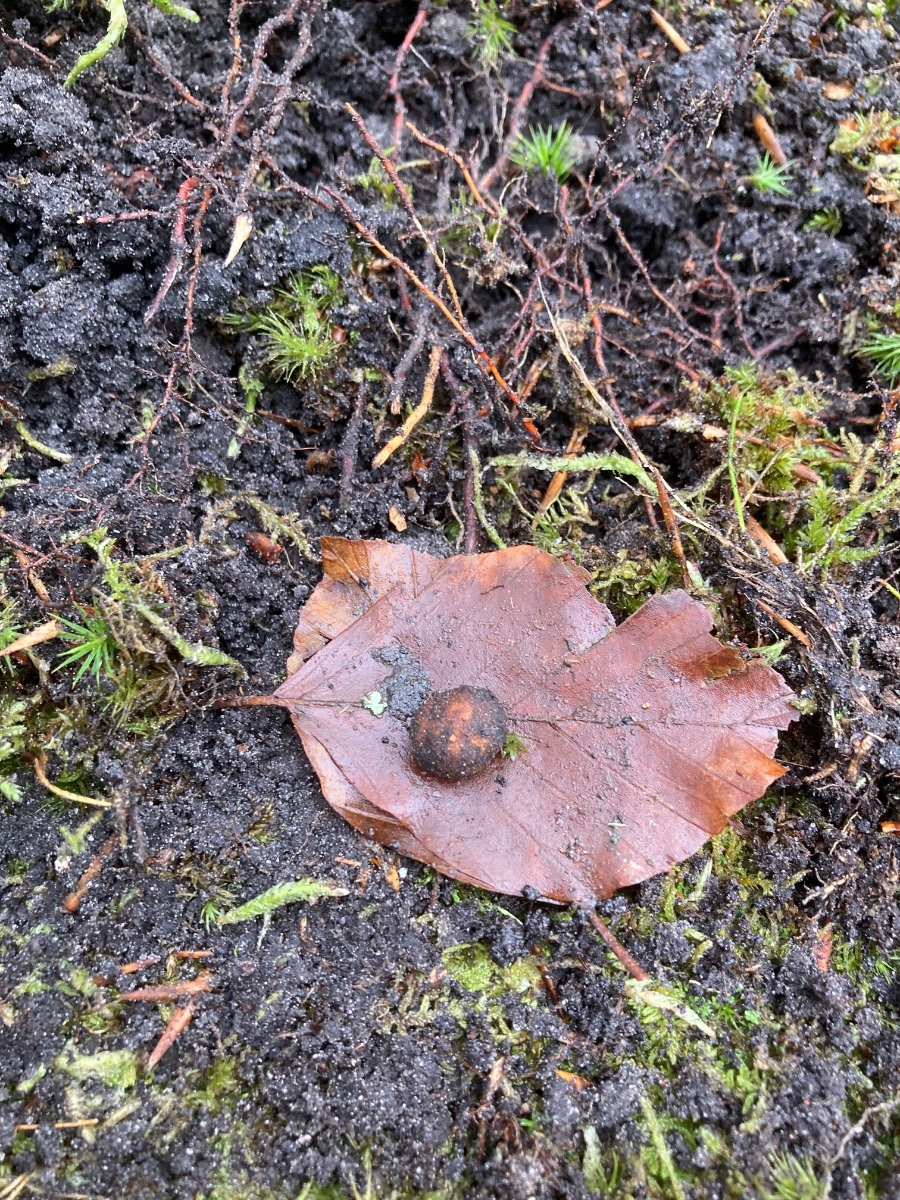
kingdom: Fungi
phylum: Ascomycota
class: Eurotiomycetes
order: Eurotiales
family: Elaphomycetaceae
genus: Elaphomyces
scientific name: Elaphomyces muricatus
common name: vortet hjortetrøffel
